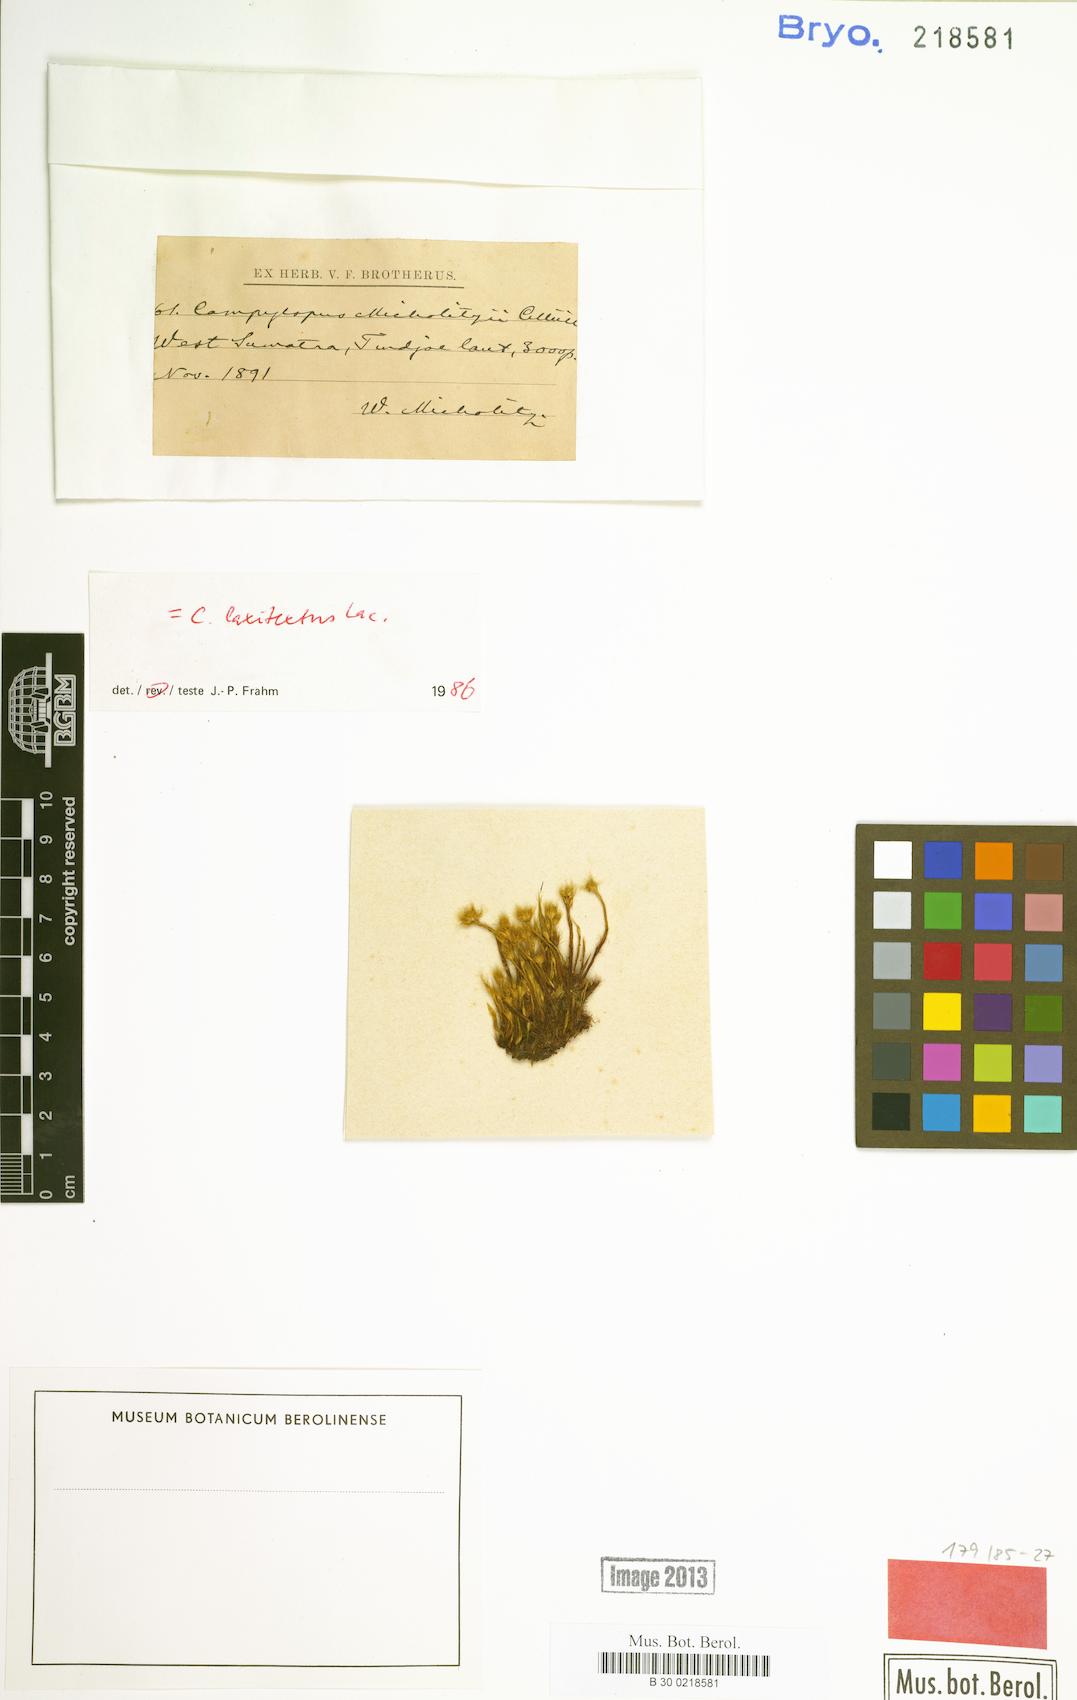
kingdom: Plantae
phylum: Bryophyta
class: Bryopsida
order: Dicranales
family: Leucobryaceae
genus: Campylopus
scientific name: Campylopus laxitextus
